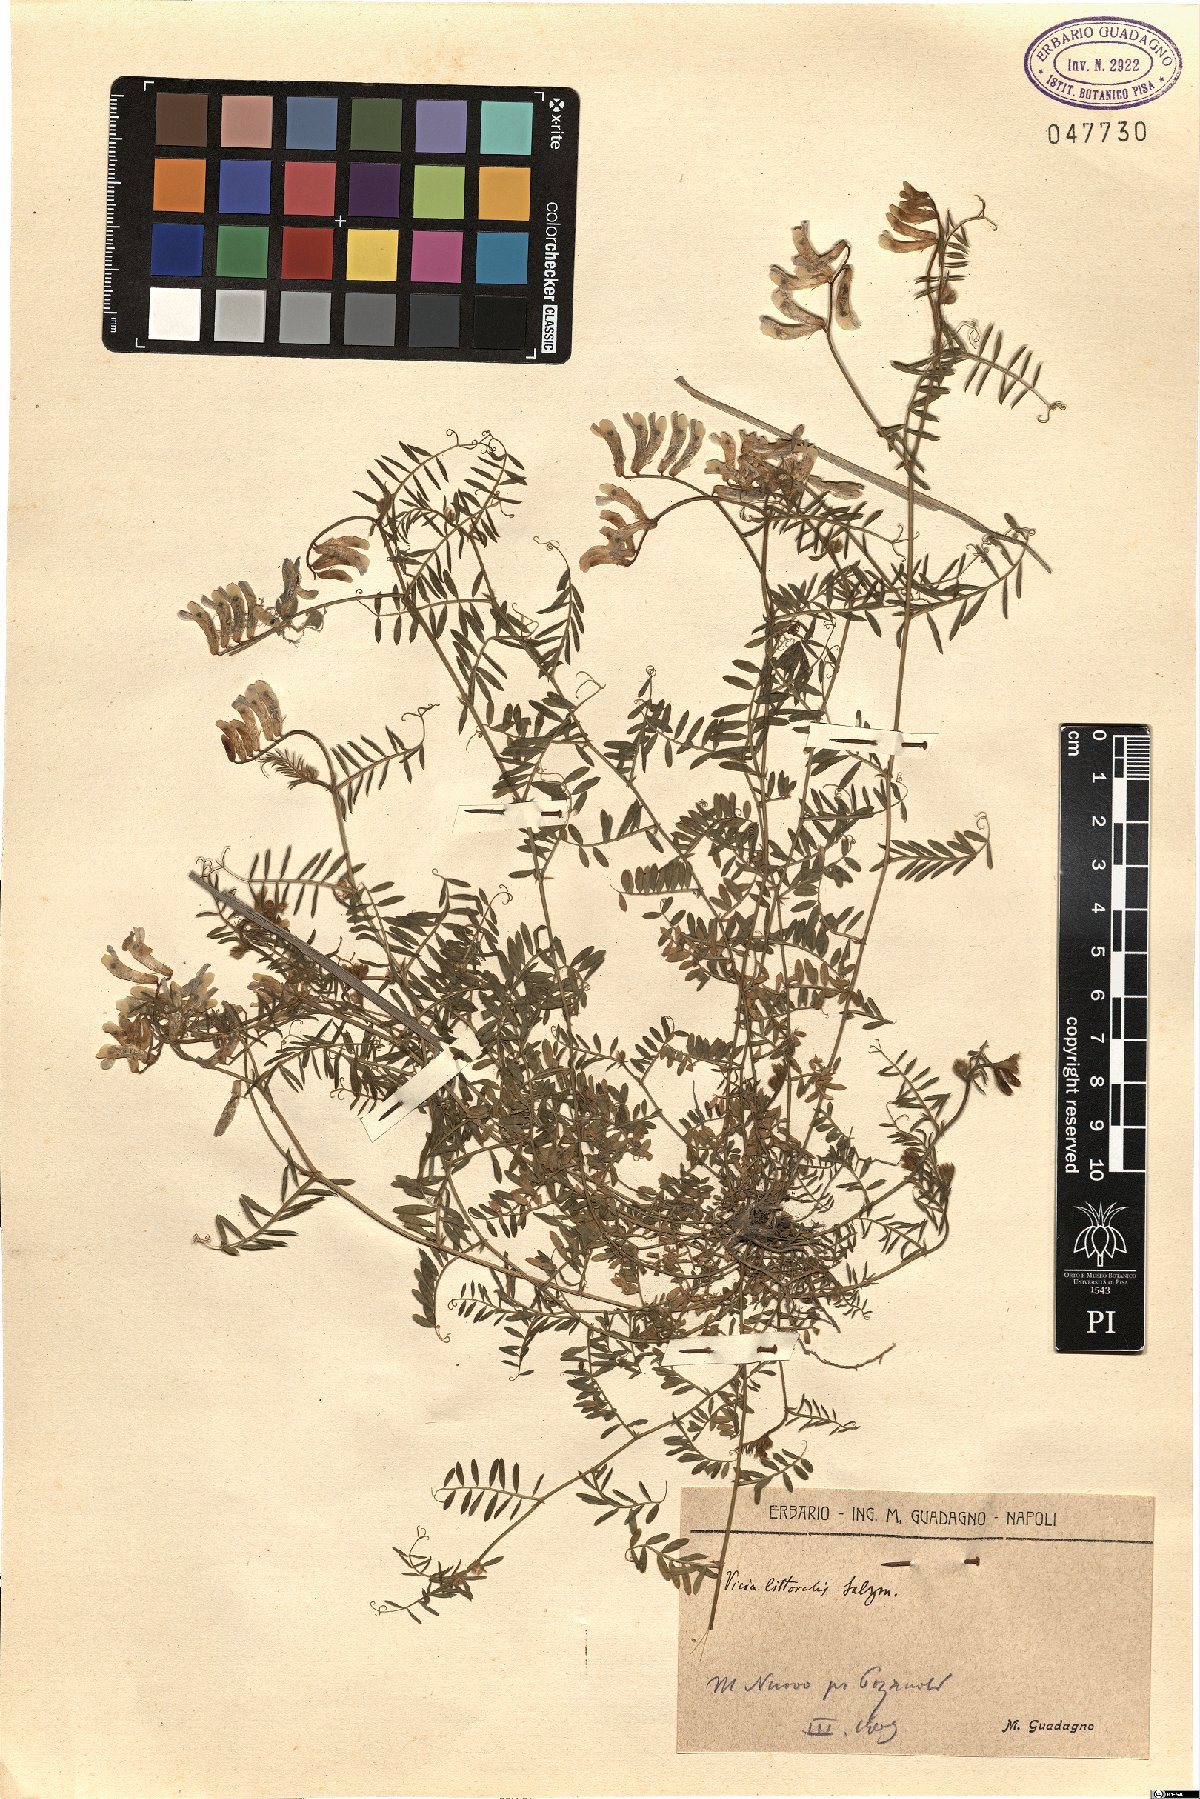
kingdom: Plantae
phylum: Tracheophyta
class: Magnoliopsida
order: Fabales
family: Fabaceae
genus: Vicia
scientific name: Vicia villosa
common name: Fodder vetch
